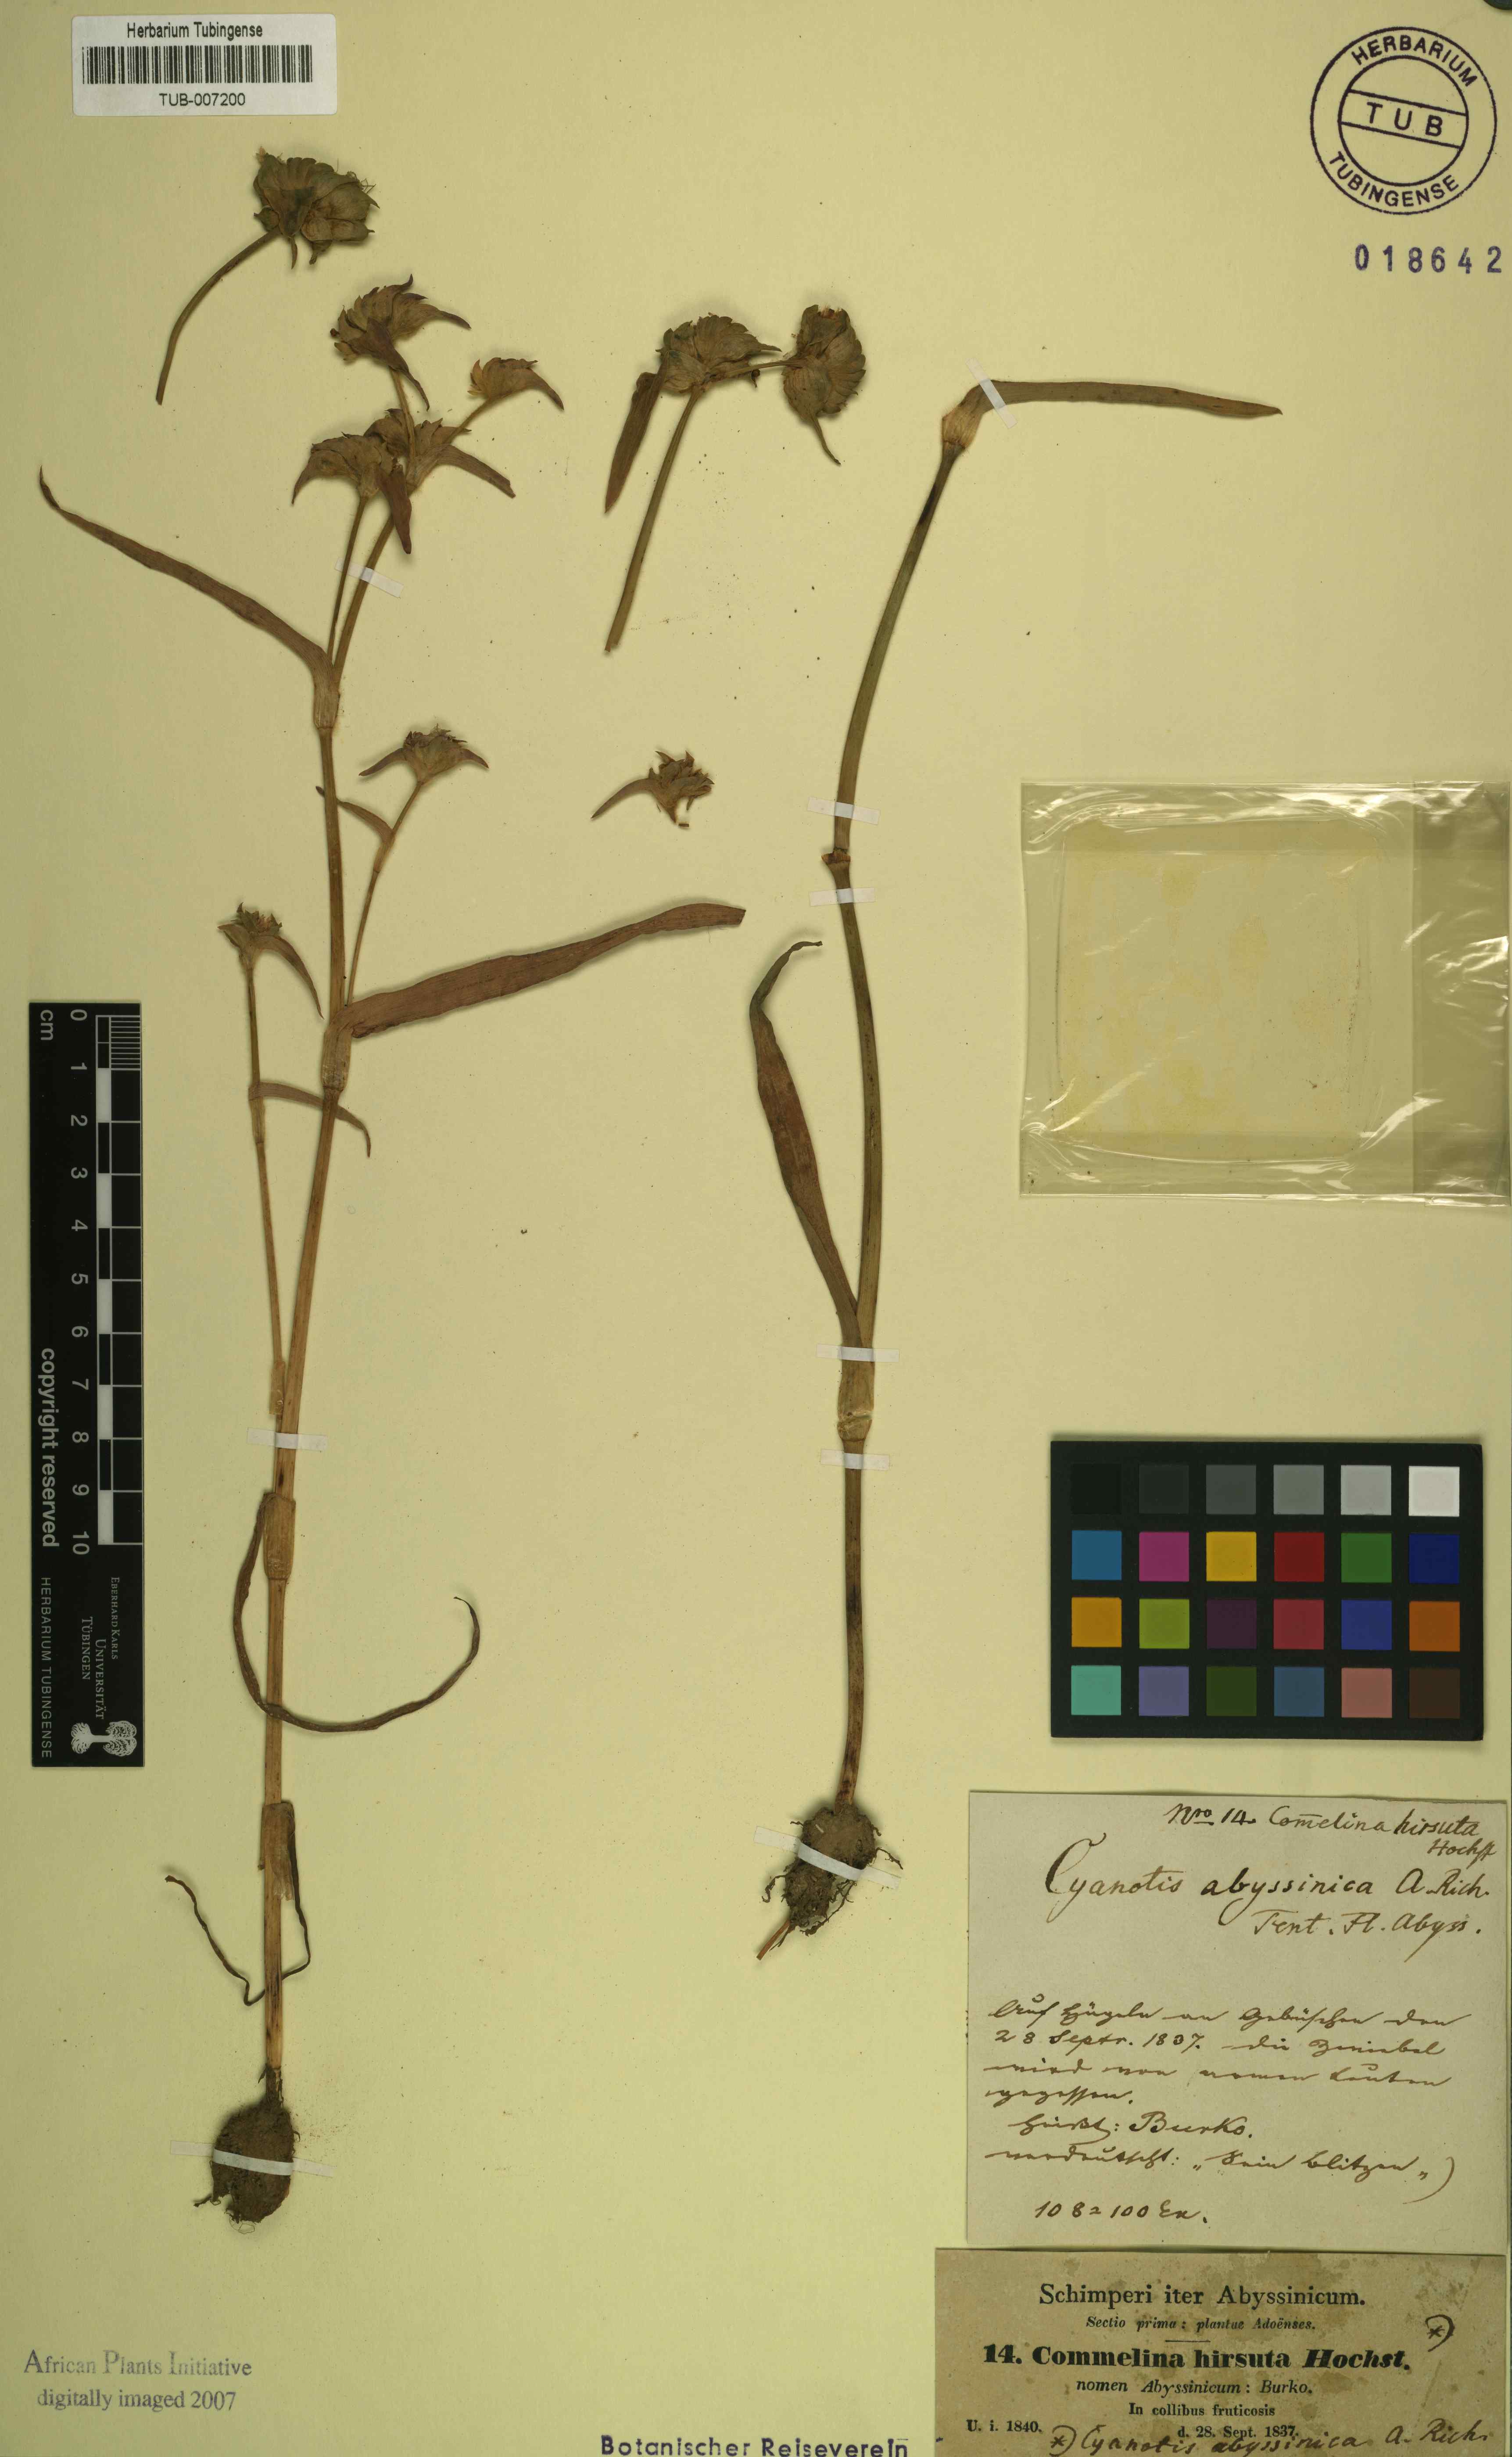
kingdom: Plantae
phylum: Tracheophyta
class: Liliopsida
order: Commelinales
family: Commelinaceae
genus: Cyanotis
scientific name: Cyanotis vaga
